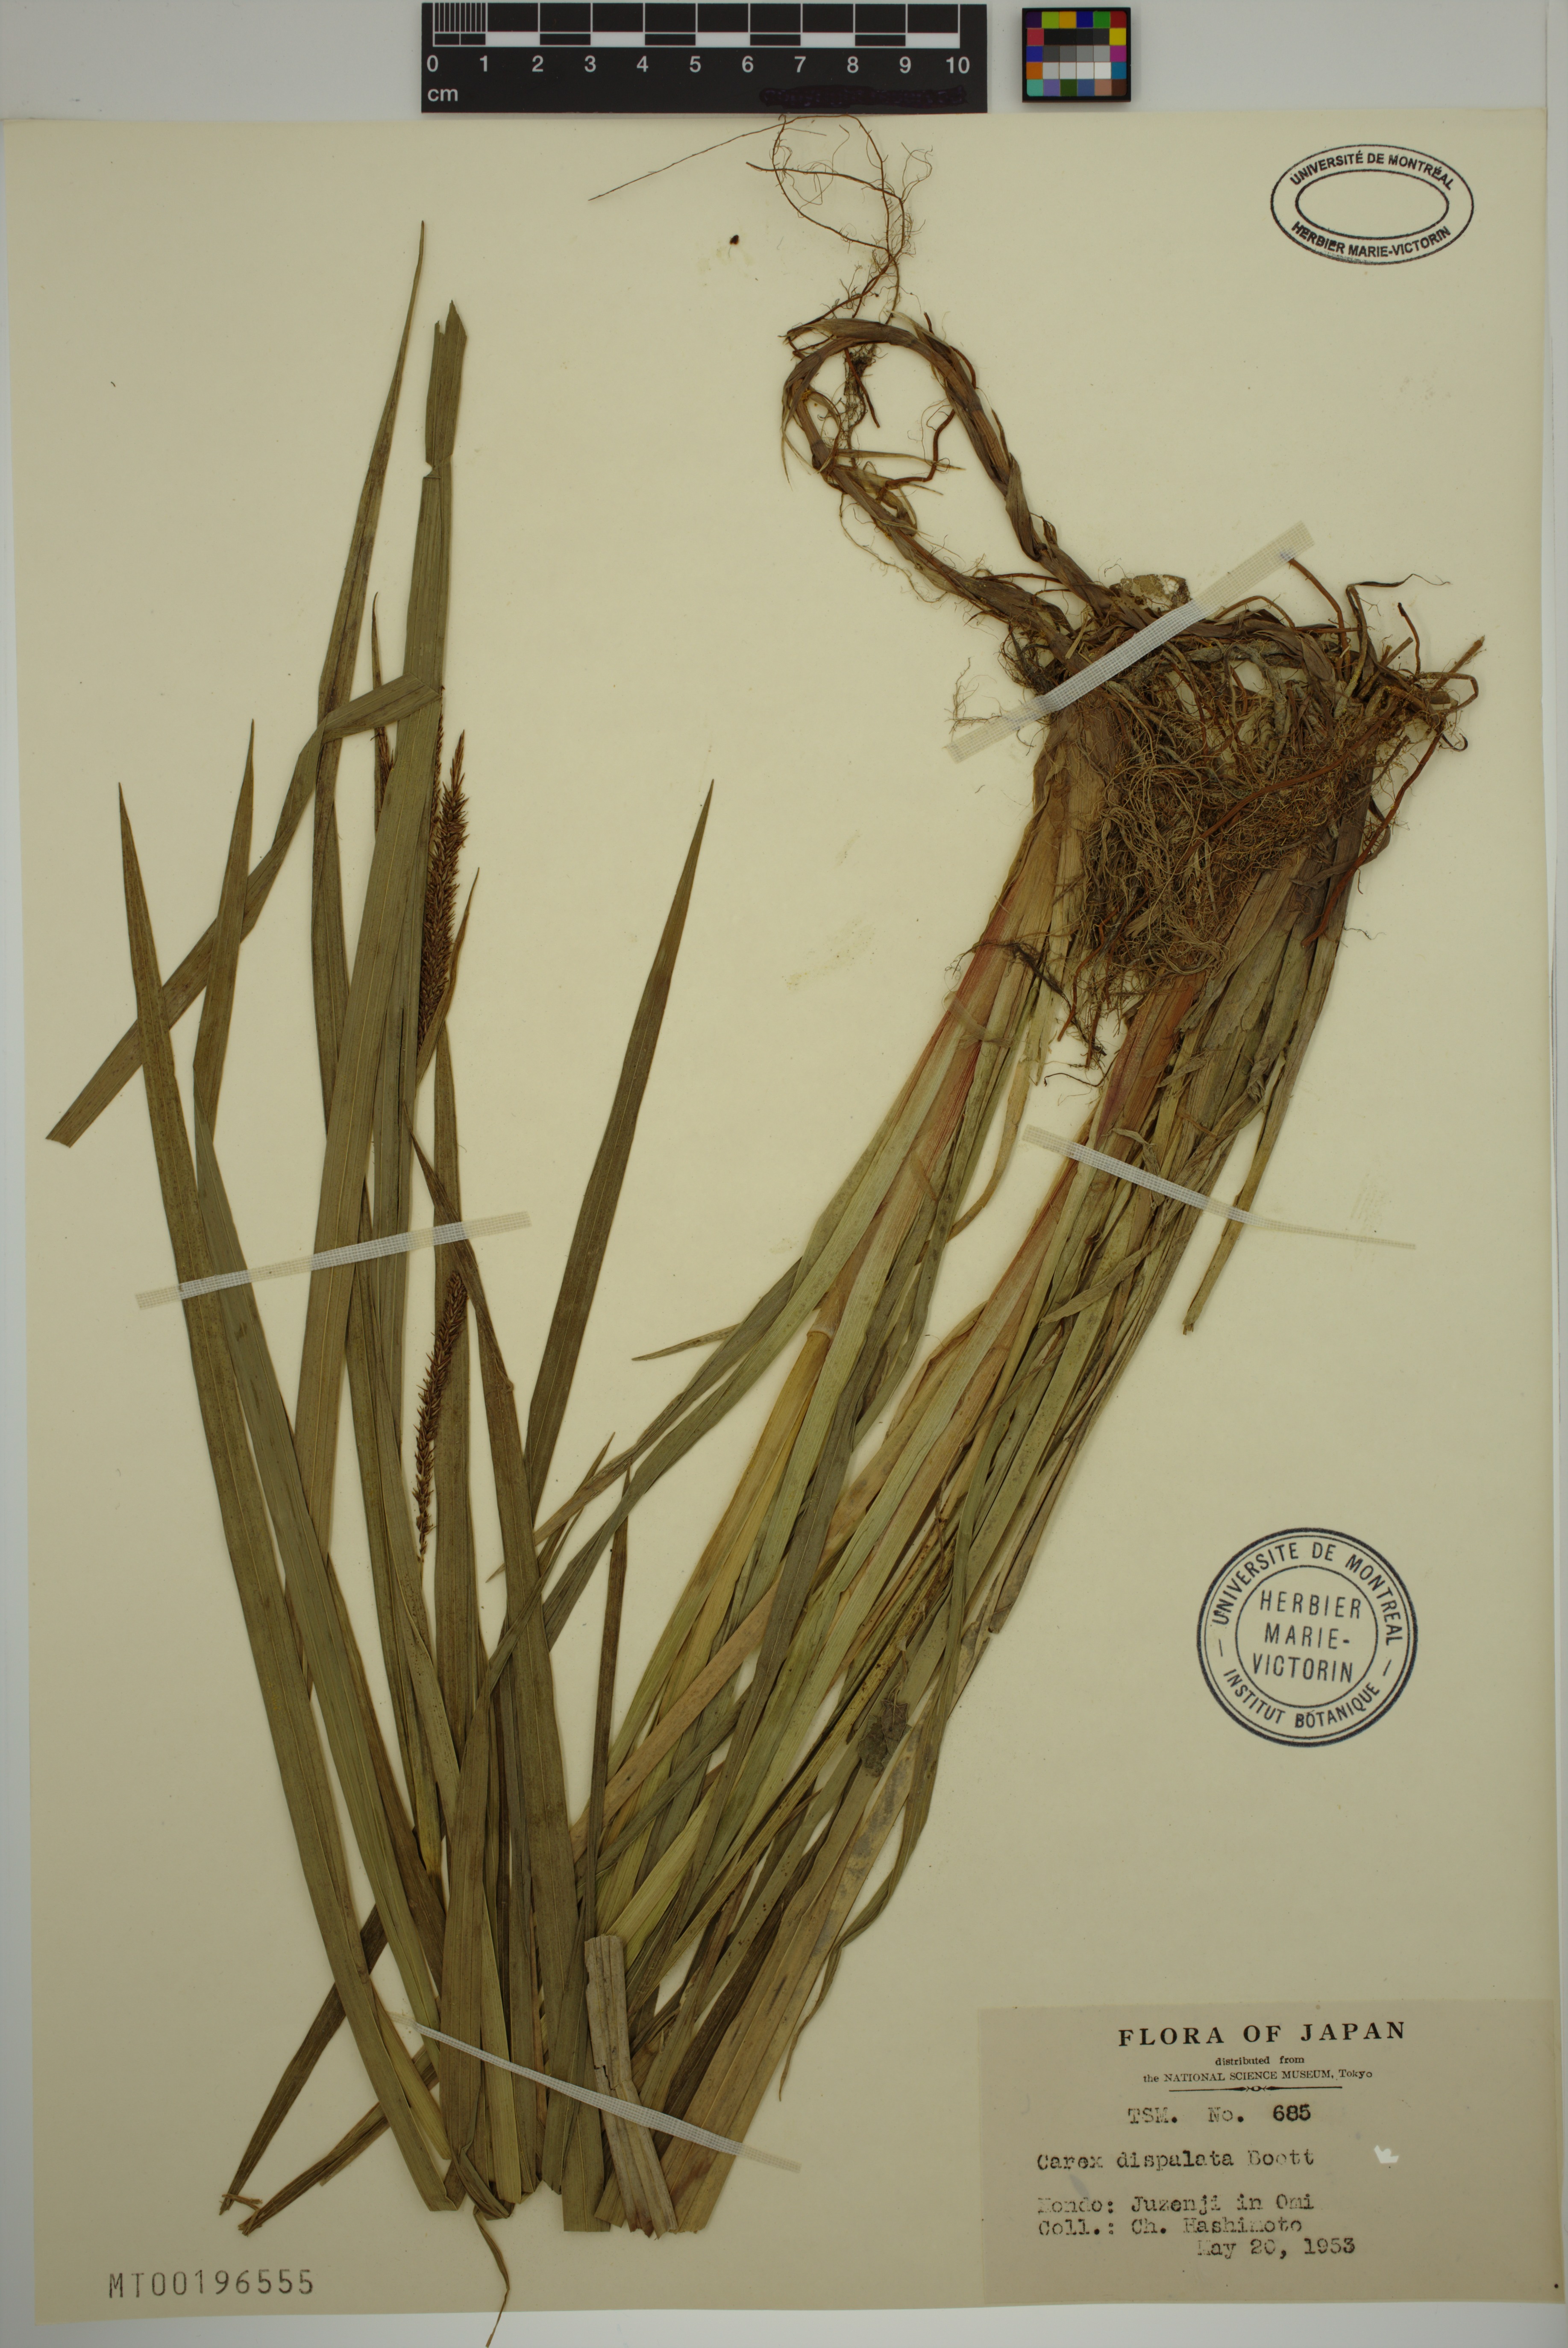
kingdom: Plantae
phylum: Tracheophyta
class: Liliopsida
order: Poales
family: Cyperaceae
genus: Carex
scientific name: Carex dispalata
